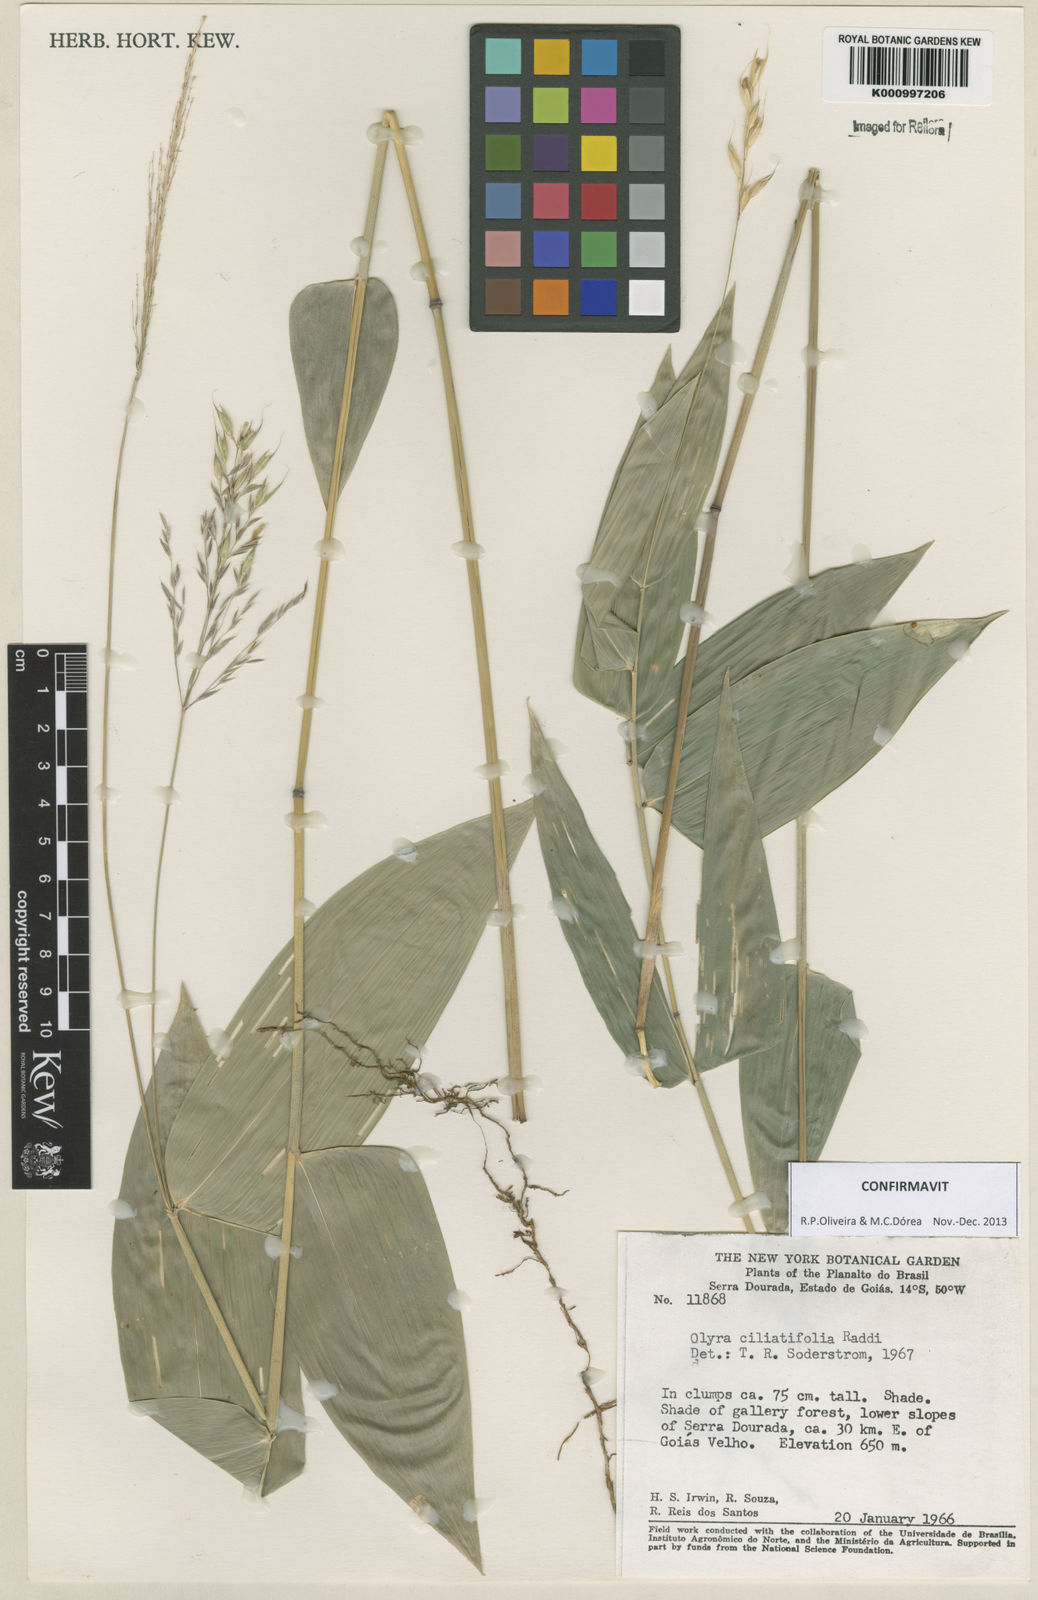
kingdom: Plantae
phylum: Tracheophyta
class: Liliopsida
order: Poales
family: Poaceae
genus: Olyra
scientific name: Olyra ciliatifolia
